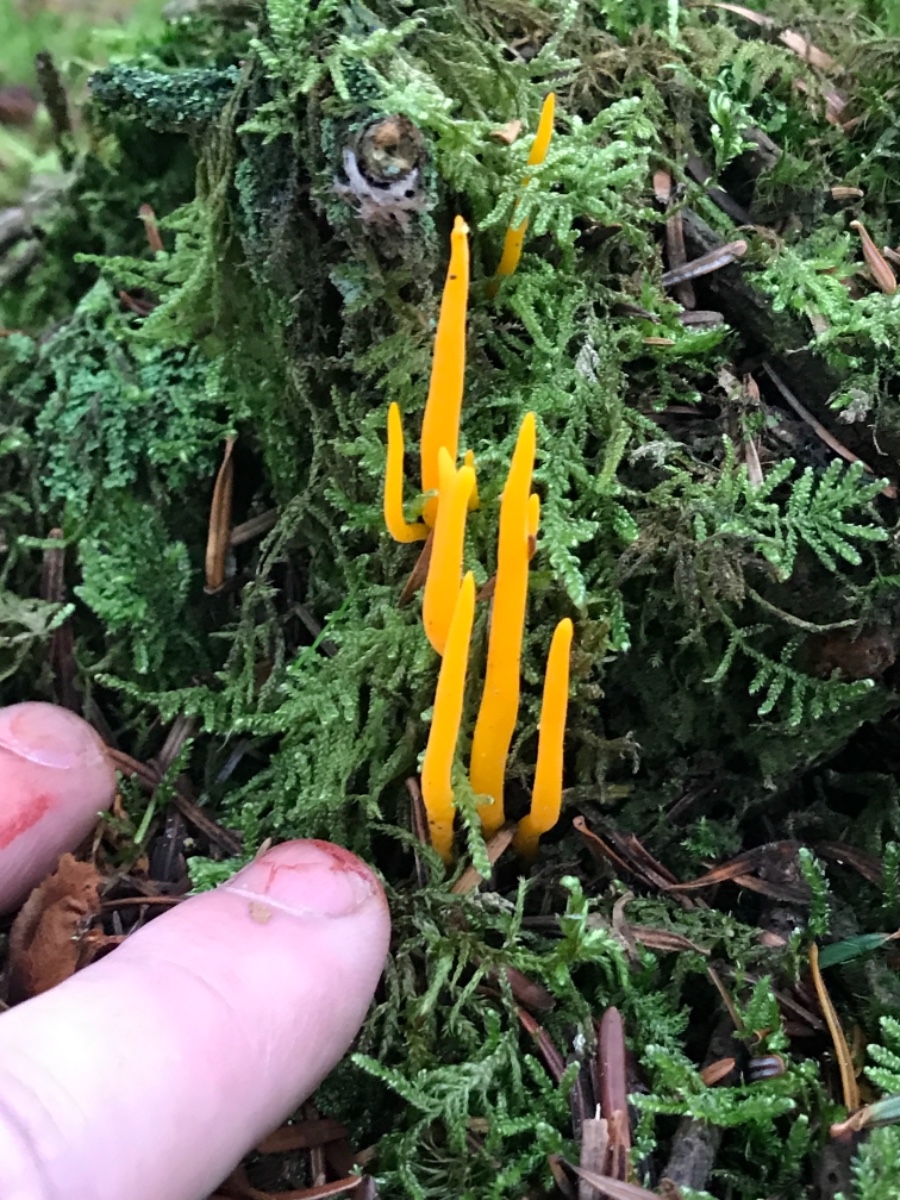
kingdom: Fungi
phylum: Basidiomycota
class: Dacrymycetes
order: Dacrymycetales
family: Dacrymycetaceae
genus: Calocera
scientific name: Calocera viscosa
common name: almindelig guldgaffel
